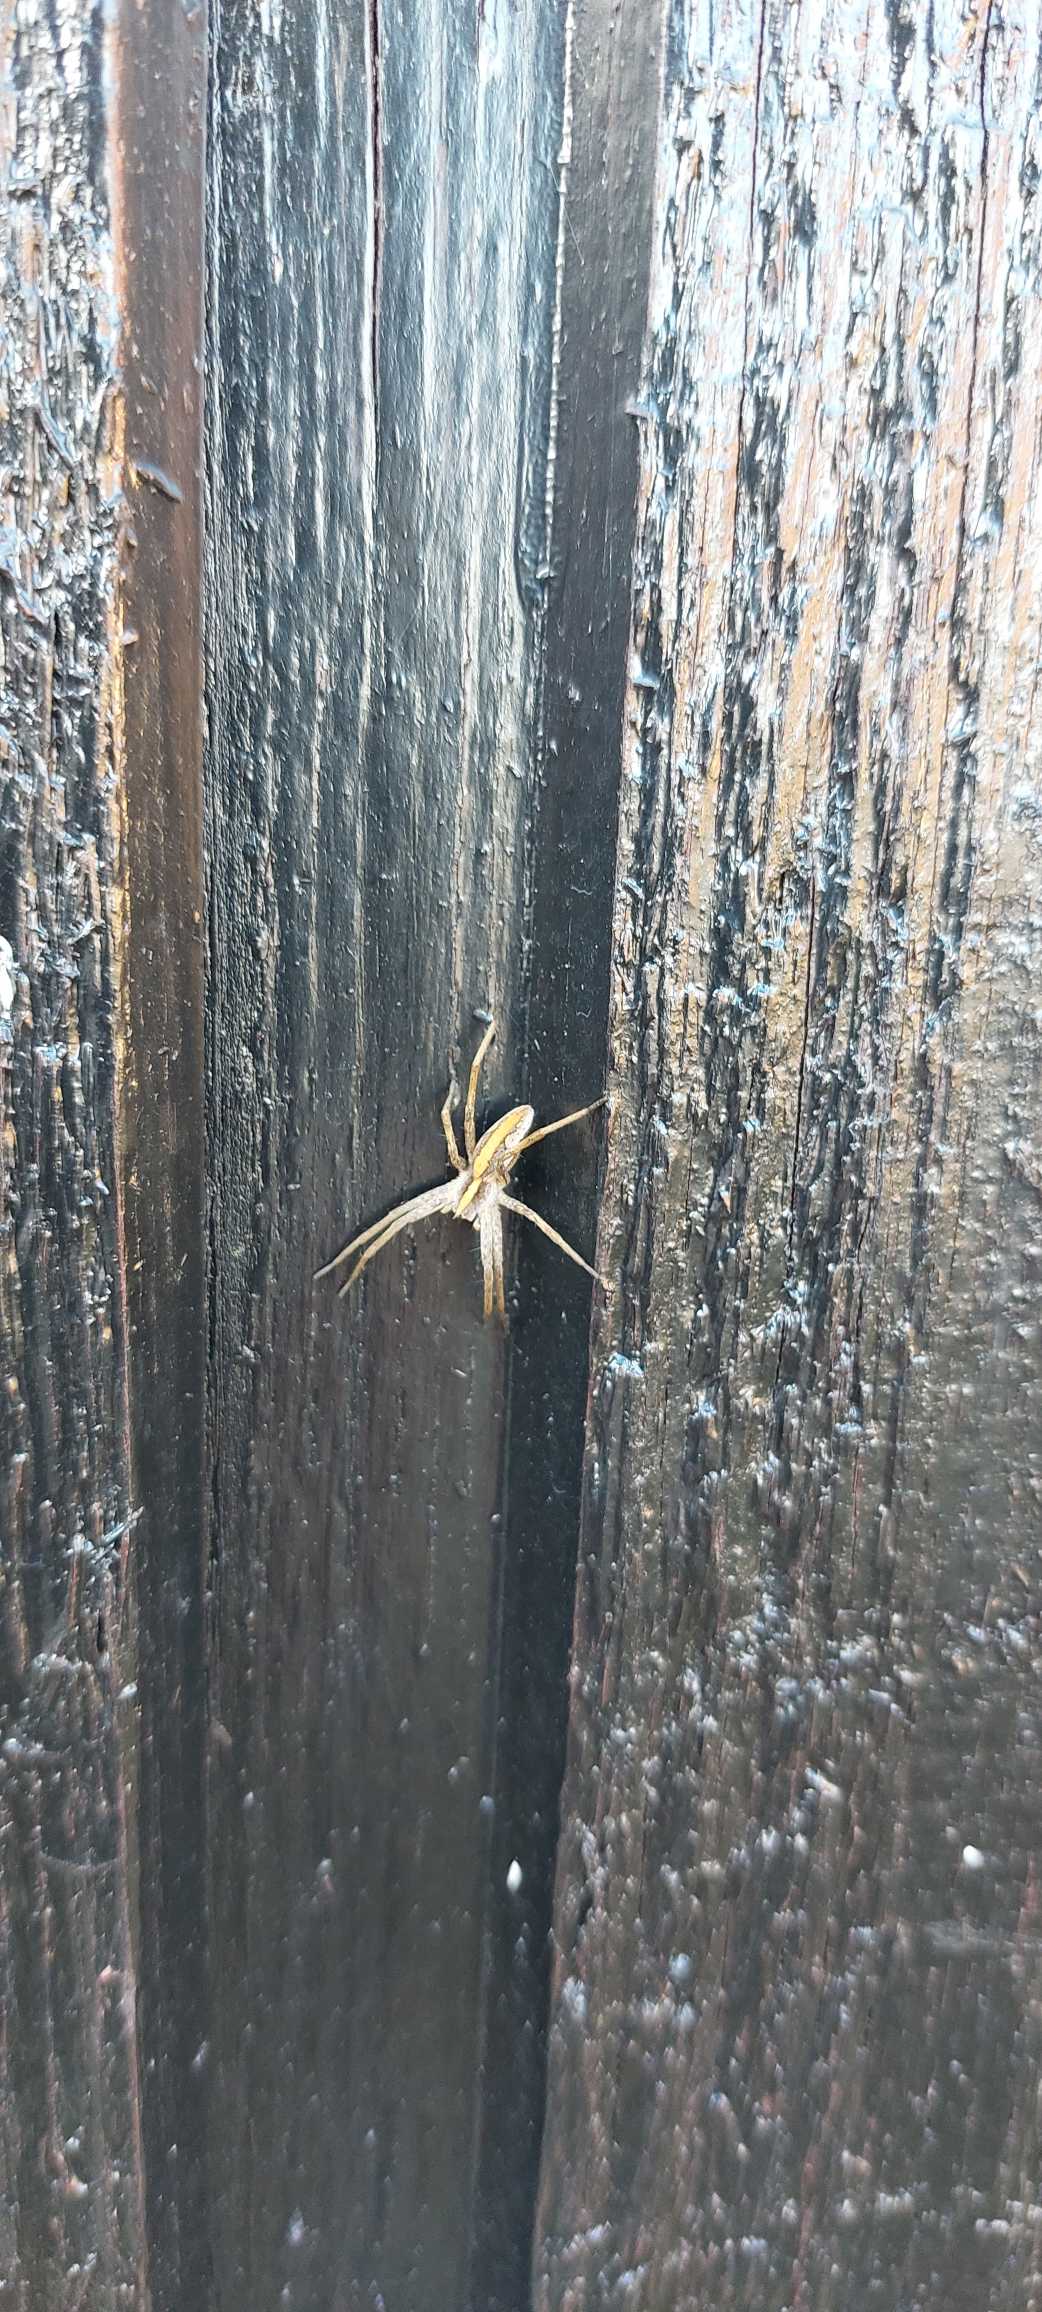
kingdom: Animalia
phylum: Arthropoda
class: Arachnida
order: Araneae
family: Pisauridae
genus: Pisaura
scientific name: Pisaura mirabilis
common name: Almindelig rovedderkop
